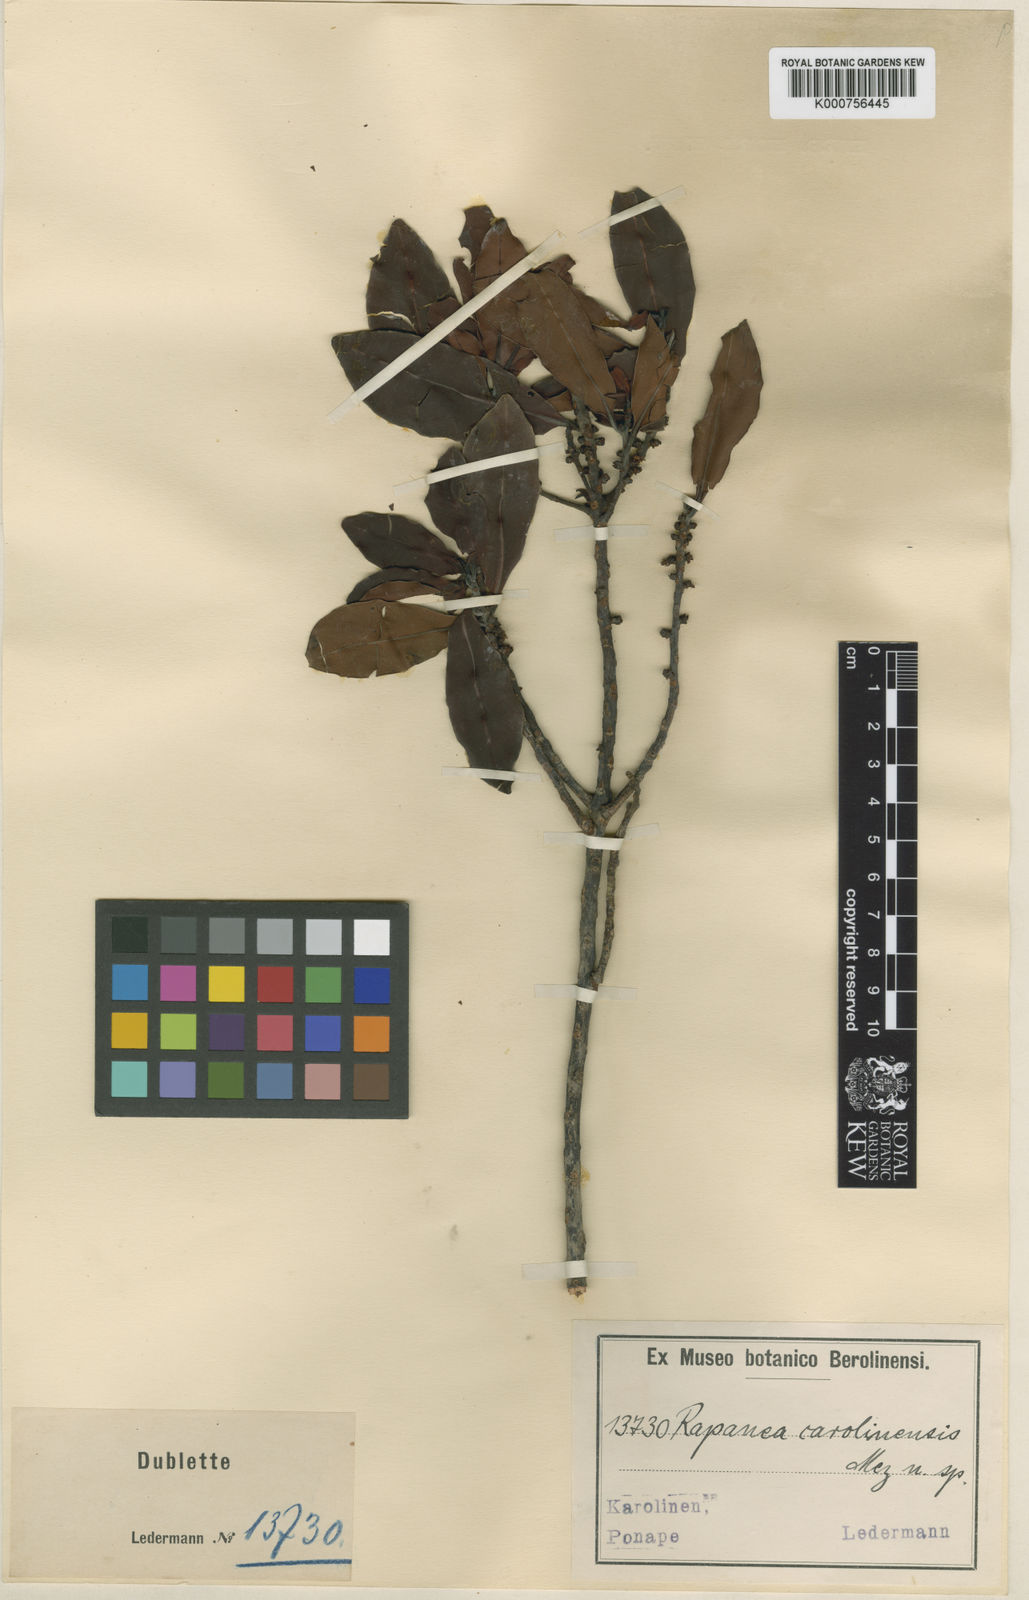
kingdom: Plantae
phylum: Tracheophyta
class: Magnoliopsida
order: Ericales
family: Primulaceae
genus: Myrsine
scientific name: Myrsine carolinensis
